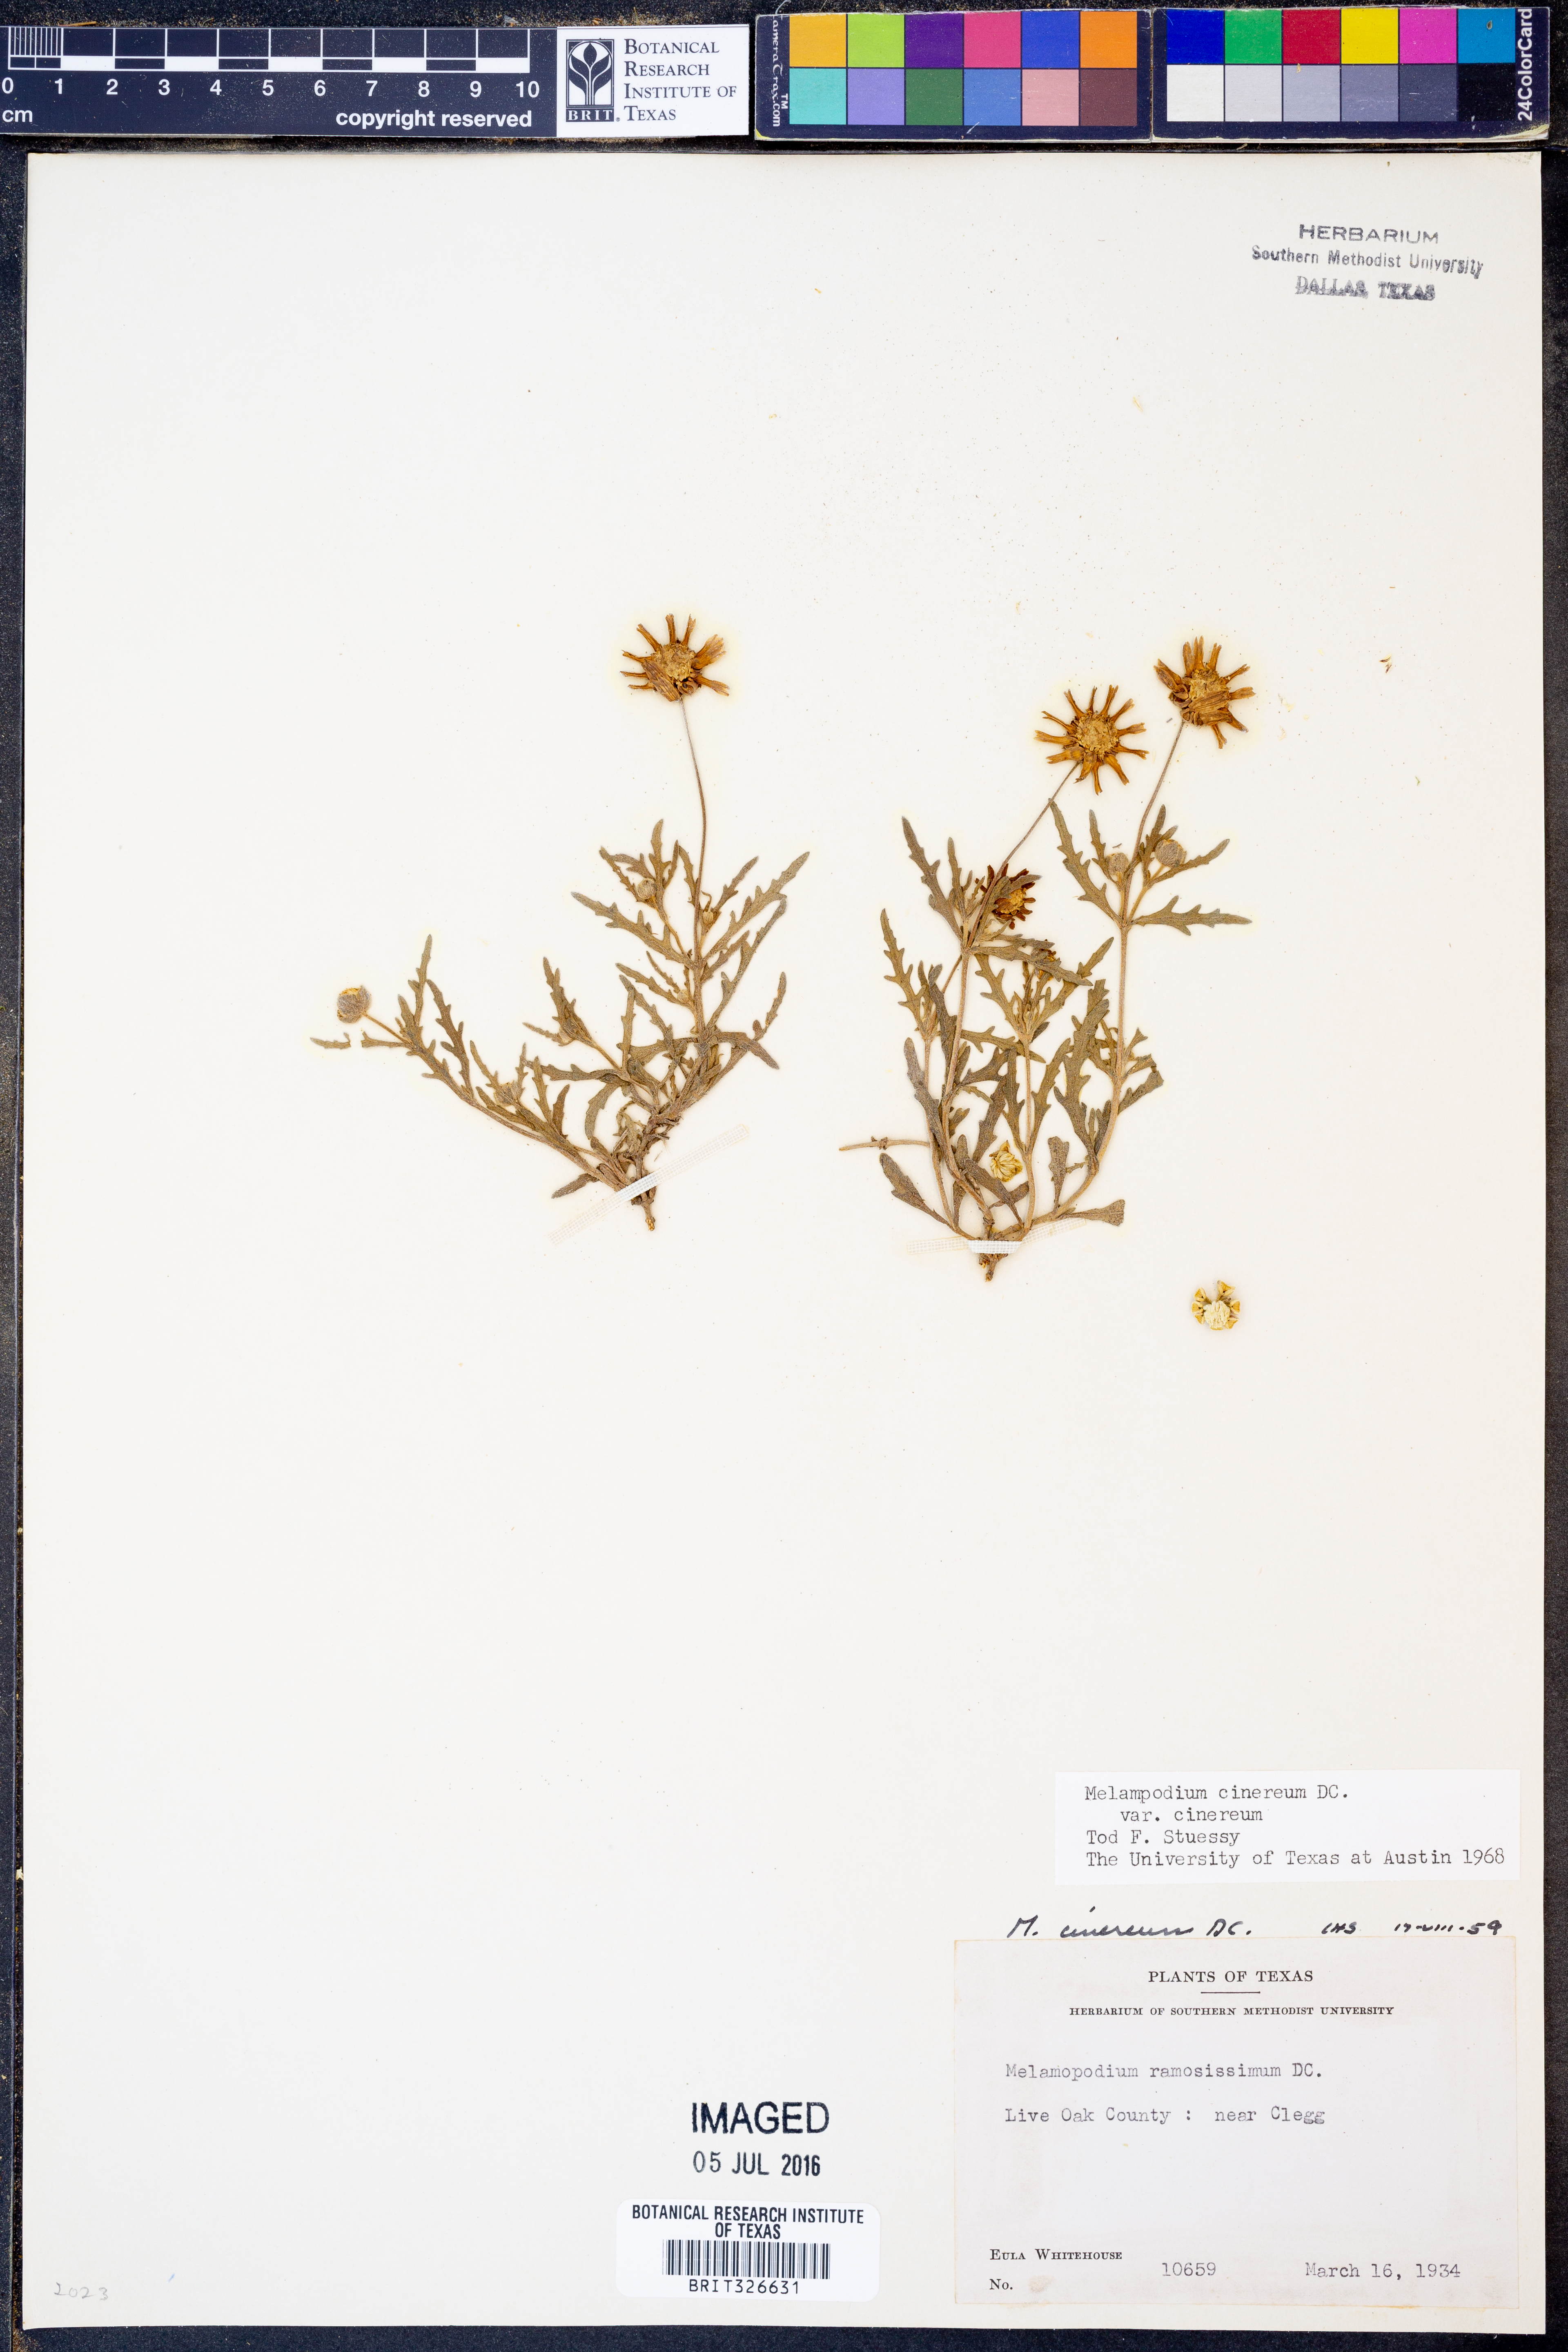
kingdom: Plantae
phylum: Tracheophyta
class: Magnoliopsida
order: Asterales
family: Asteraceae
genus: Melampodium
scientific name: Melampodium cinereum
